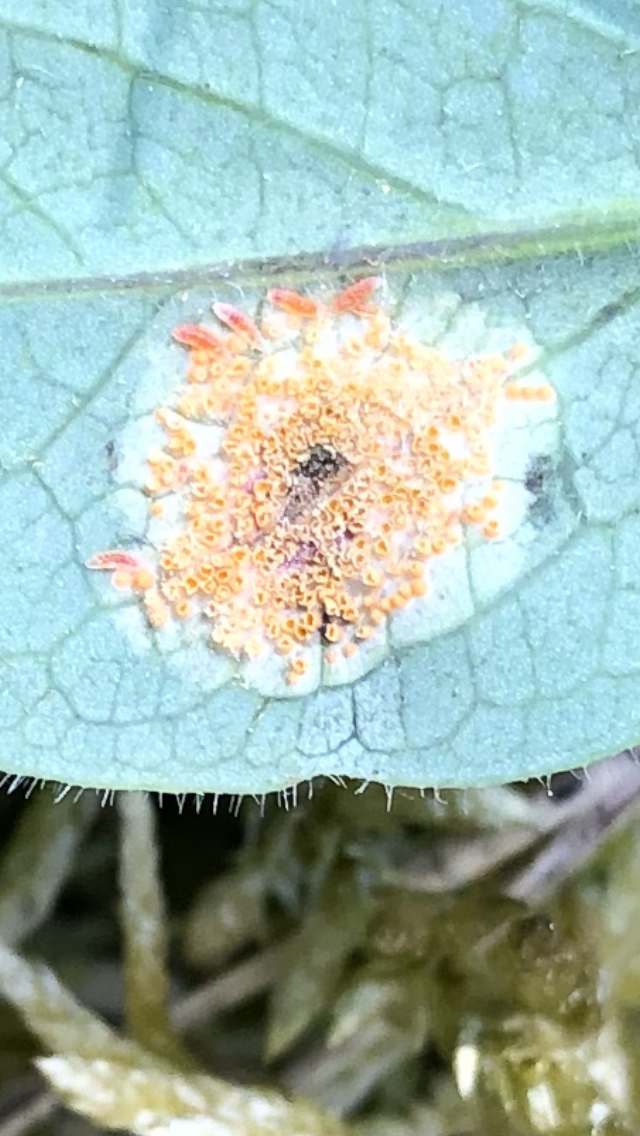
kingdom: Fungi
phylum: Basidiomycota
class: Pucciniomycetes
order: Pucciniales
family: Pucciniaceae
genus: Puccinia
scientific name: Puccinia festucae
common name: gedeblad-tvecellerust
